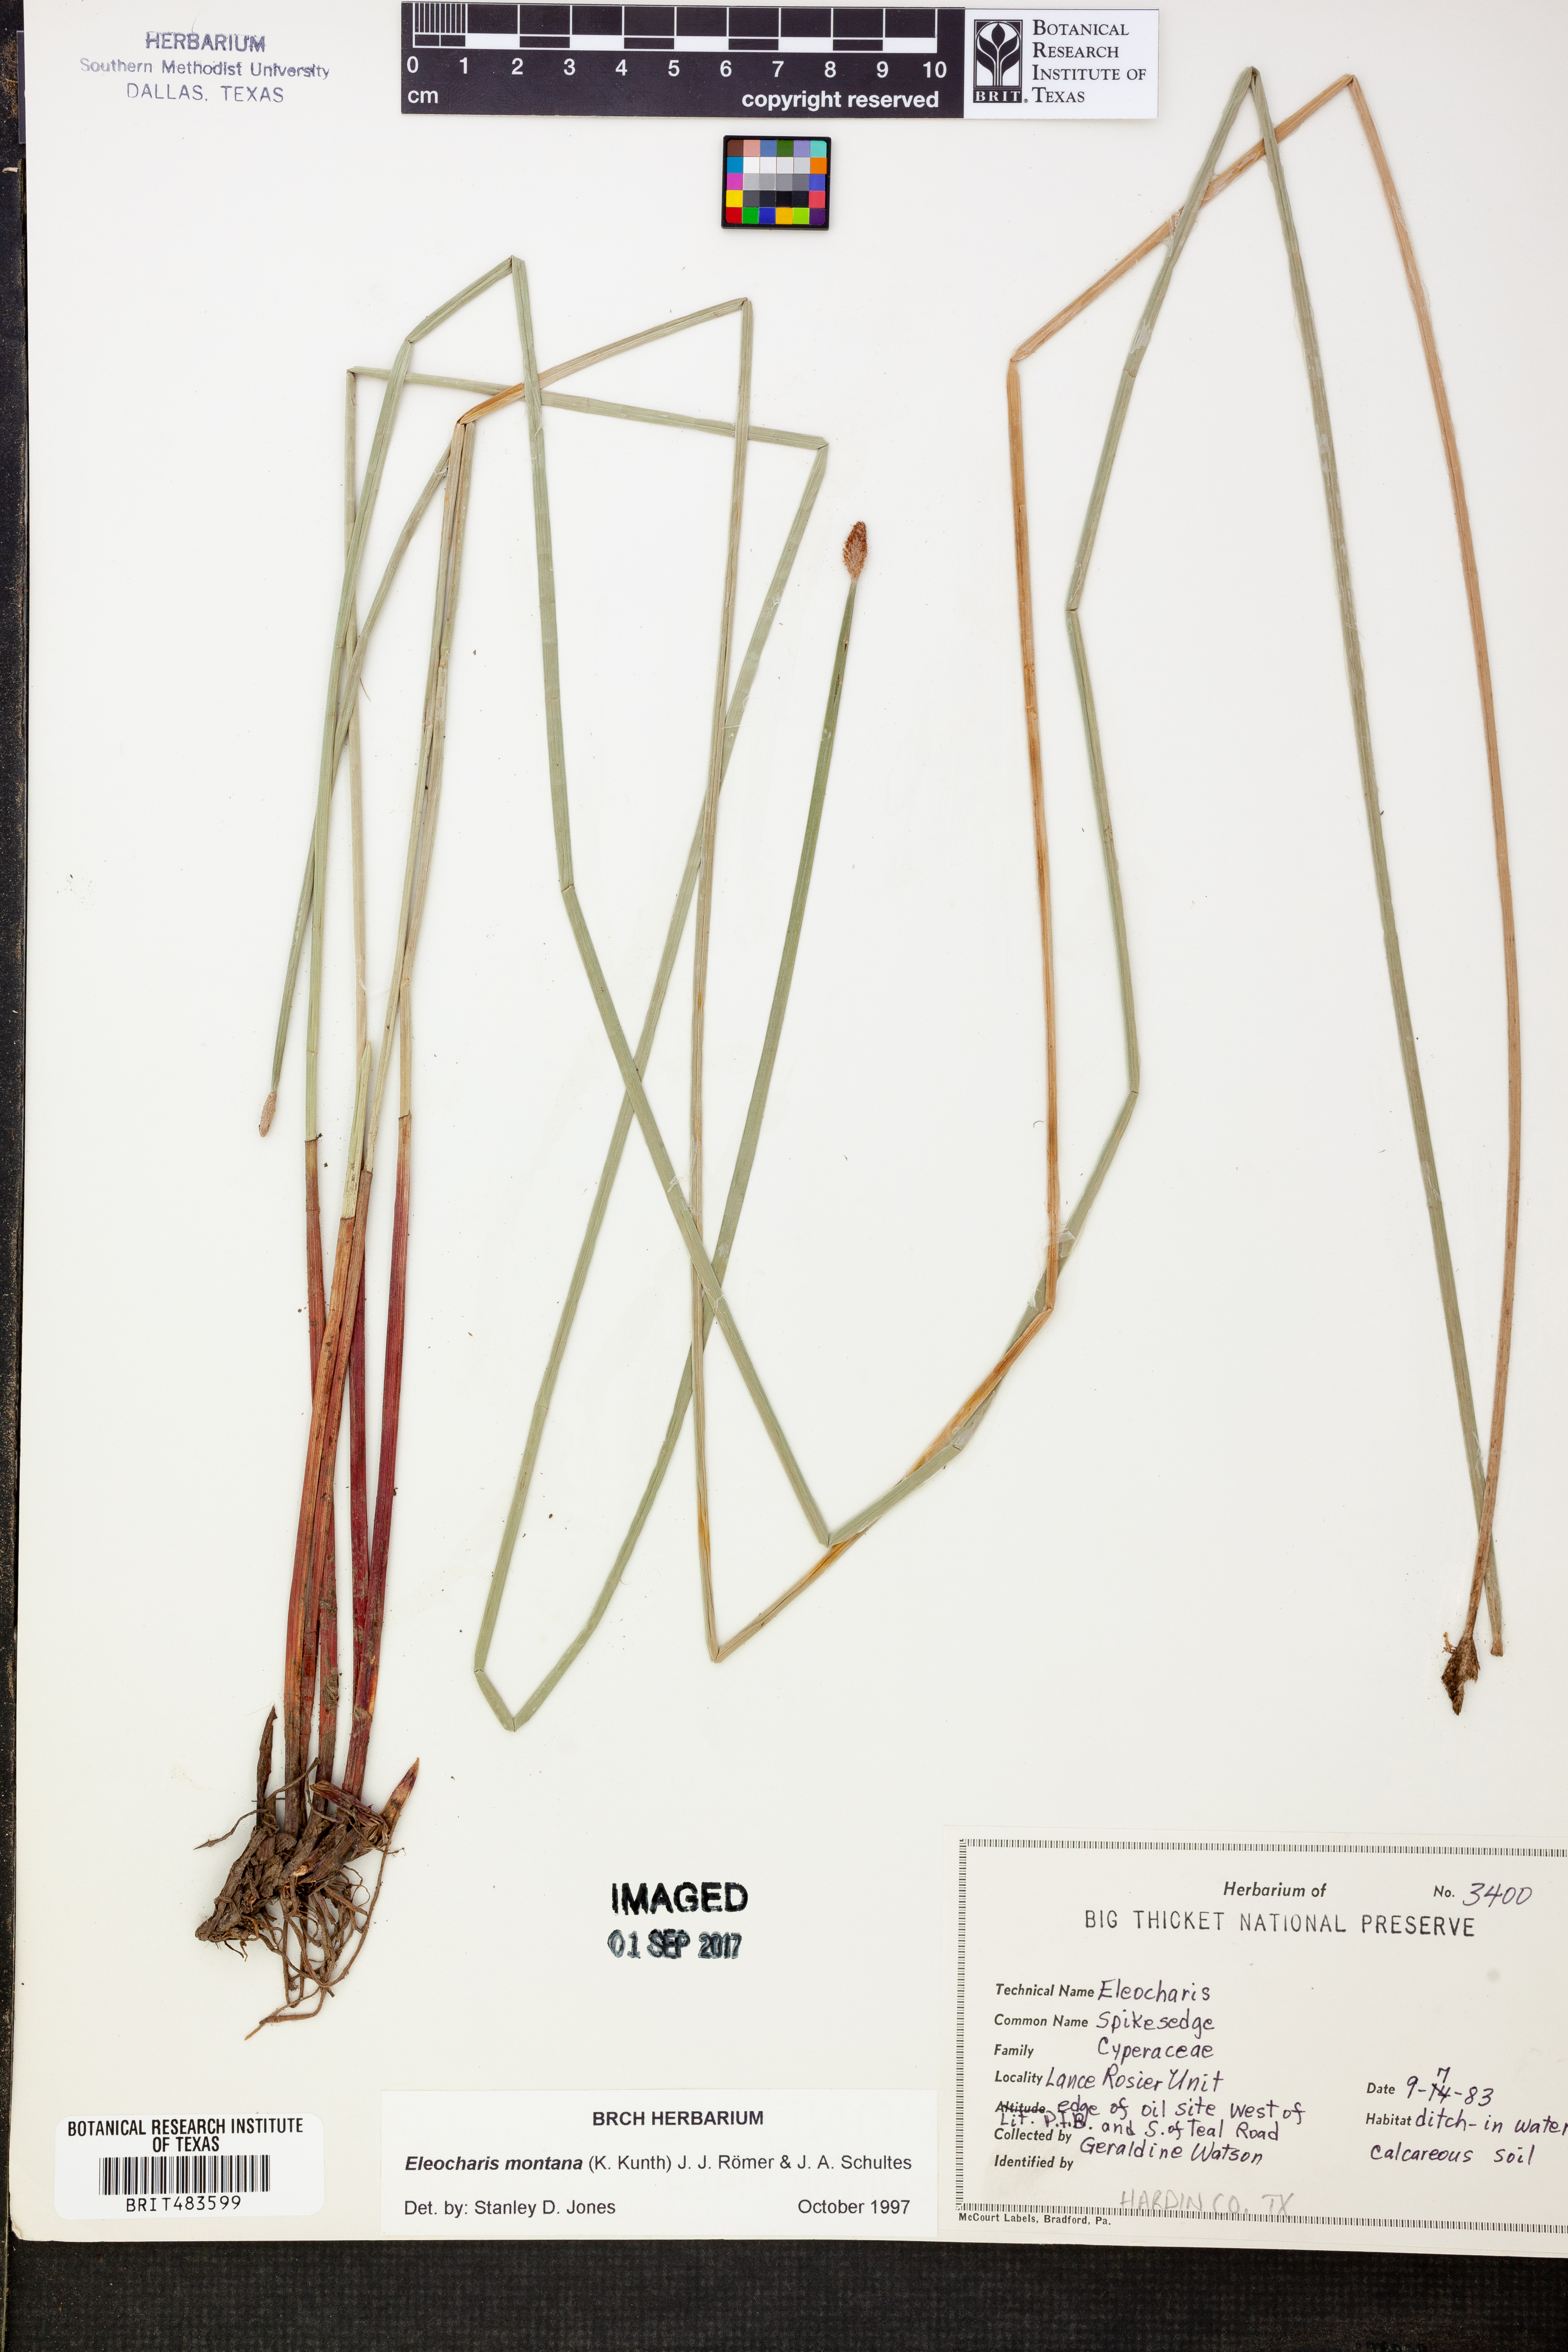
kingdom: Plantae
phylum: Tracheophyta
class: Liliopsida
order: Poales
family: Cyperaceae
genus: Eleocharis
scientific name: Eleocharis montana
